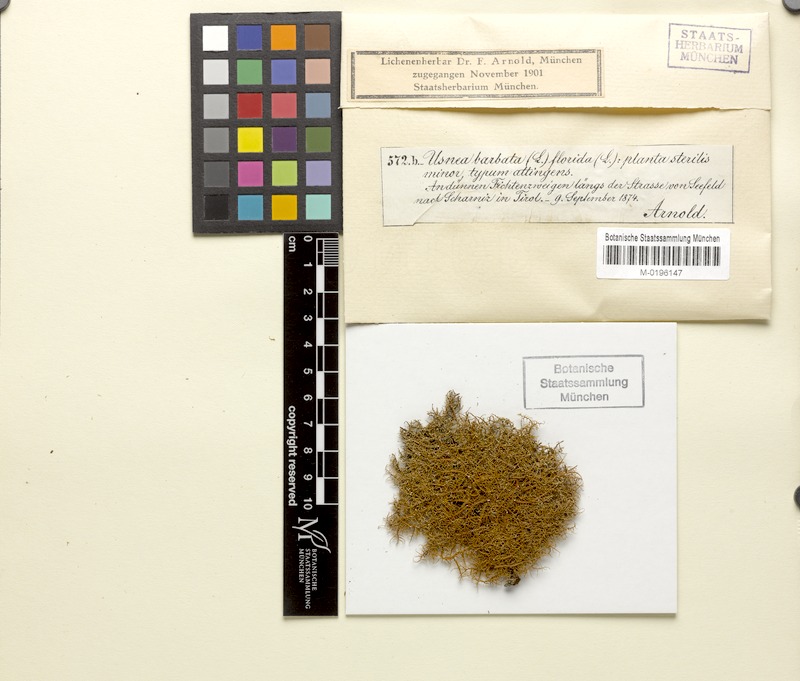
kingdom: Fungi
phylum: Ascomycota
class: Lecanoromycetes
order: Lecanorales
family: Parmeliaceae
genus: Usnea
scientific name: Usnea glabrata
